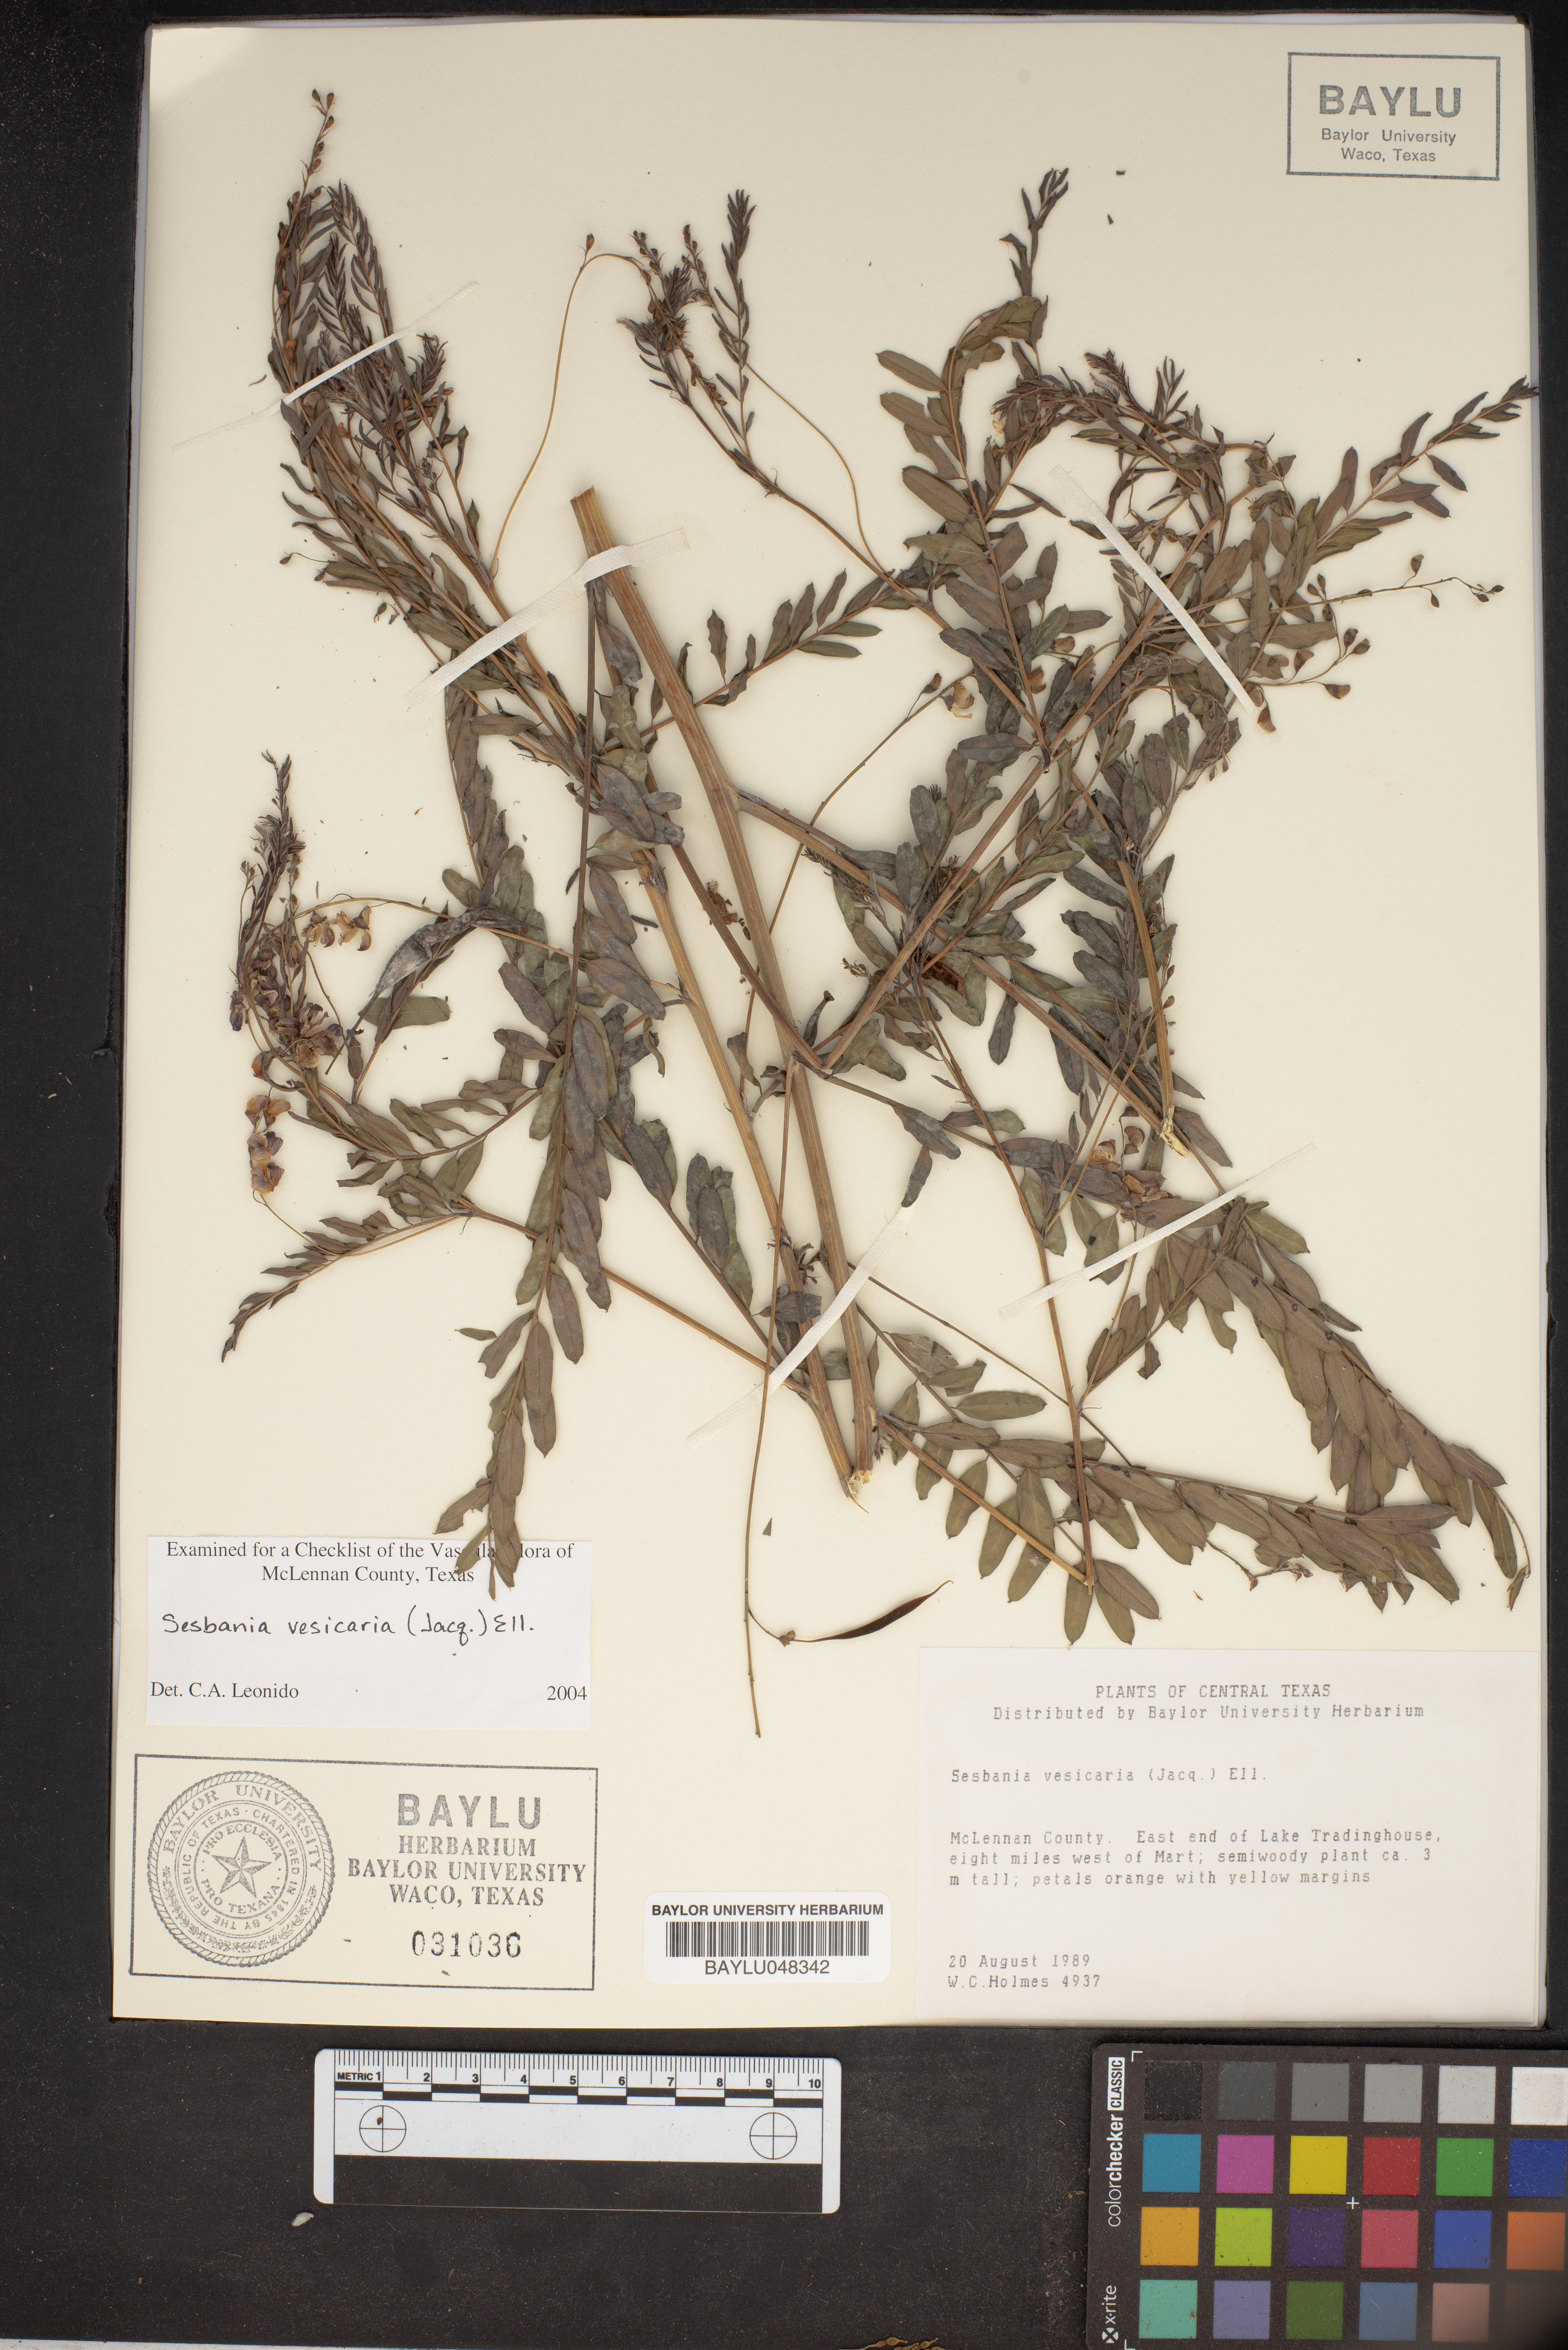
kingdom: Plantae
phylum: Tracheophyta
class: Magnoliopsida
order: Fabales
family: Fabaceae
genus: Sesbania
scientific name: Sesbania vesicaria
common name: Bagpod
